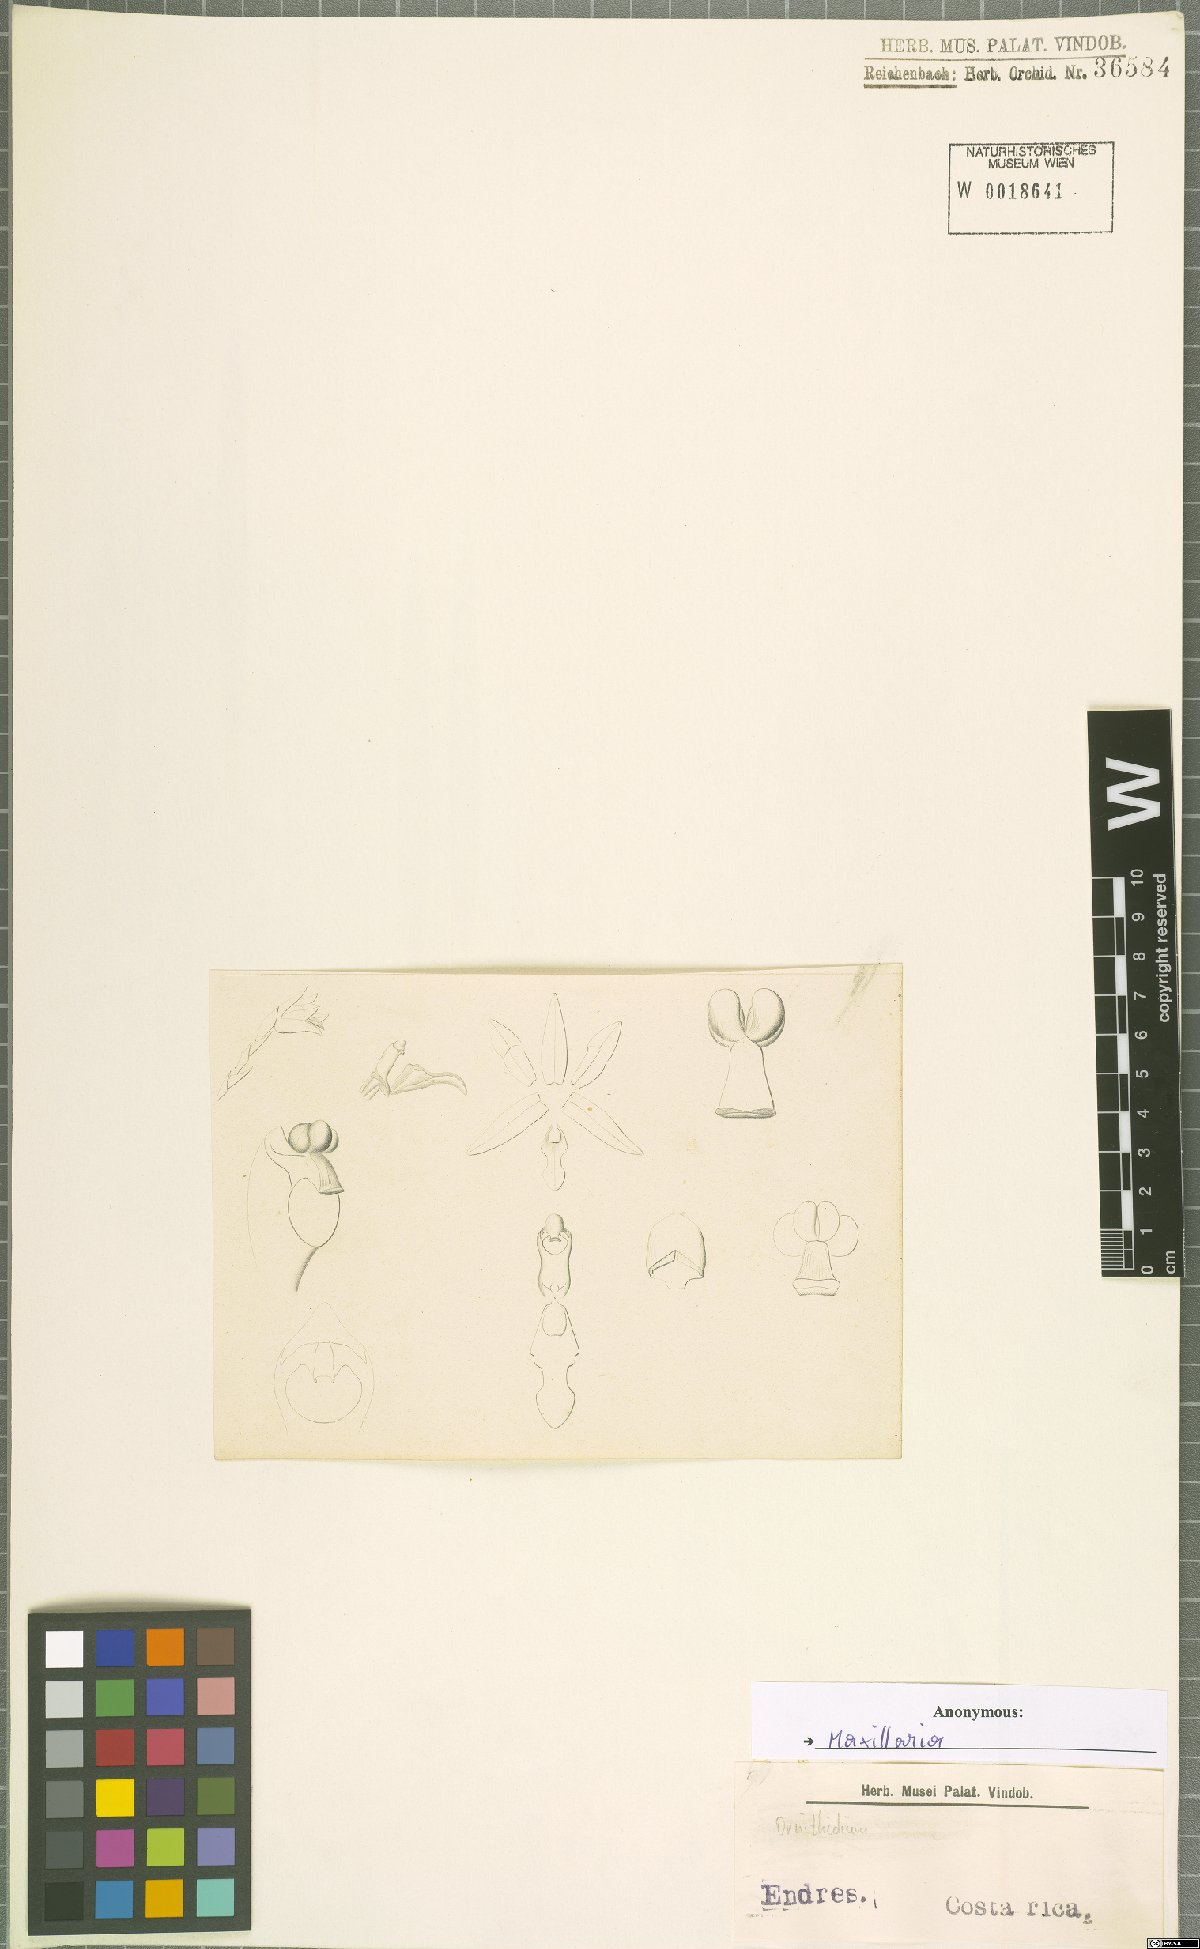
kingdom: Plantae
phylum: Tracheophyta
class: Liliopsida
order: Asparagales
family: Orchidaceae
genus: Maxillaria
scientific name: Maxillaria
